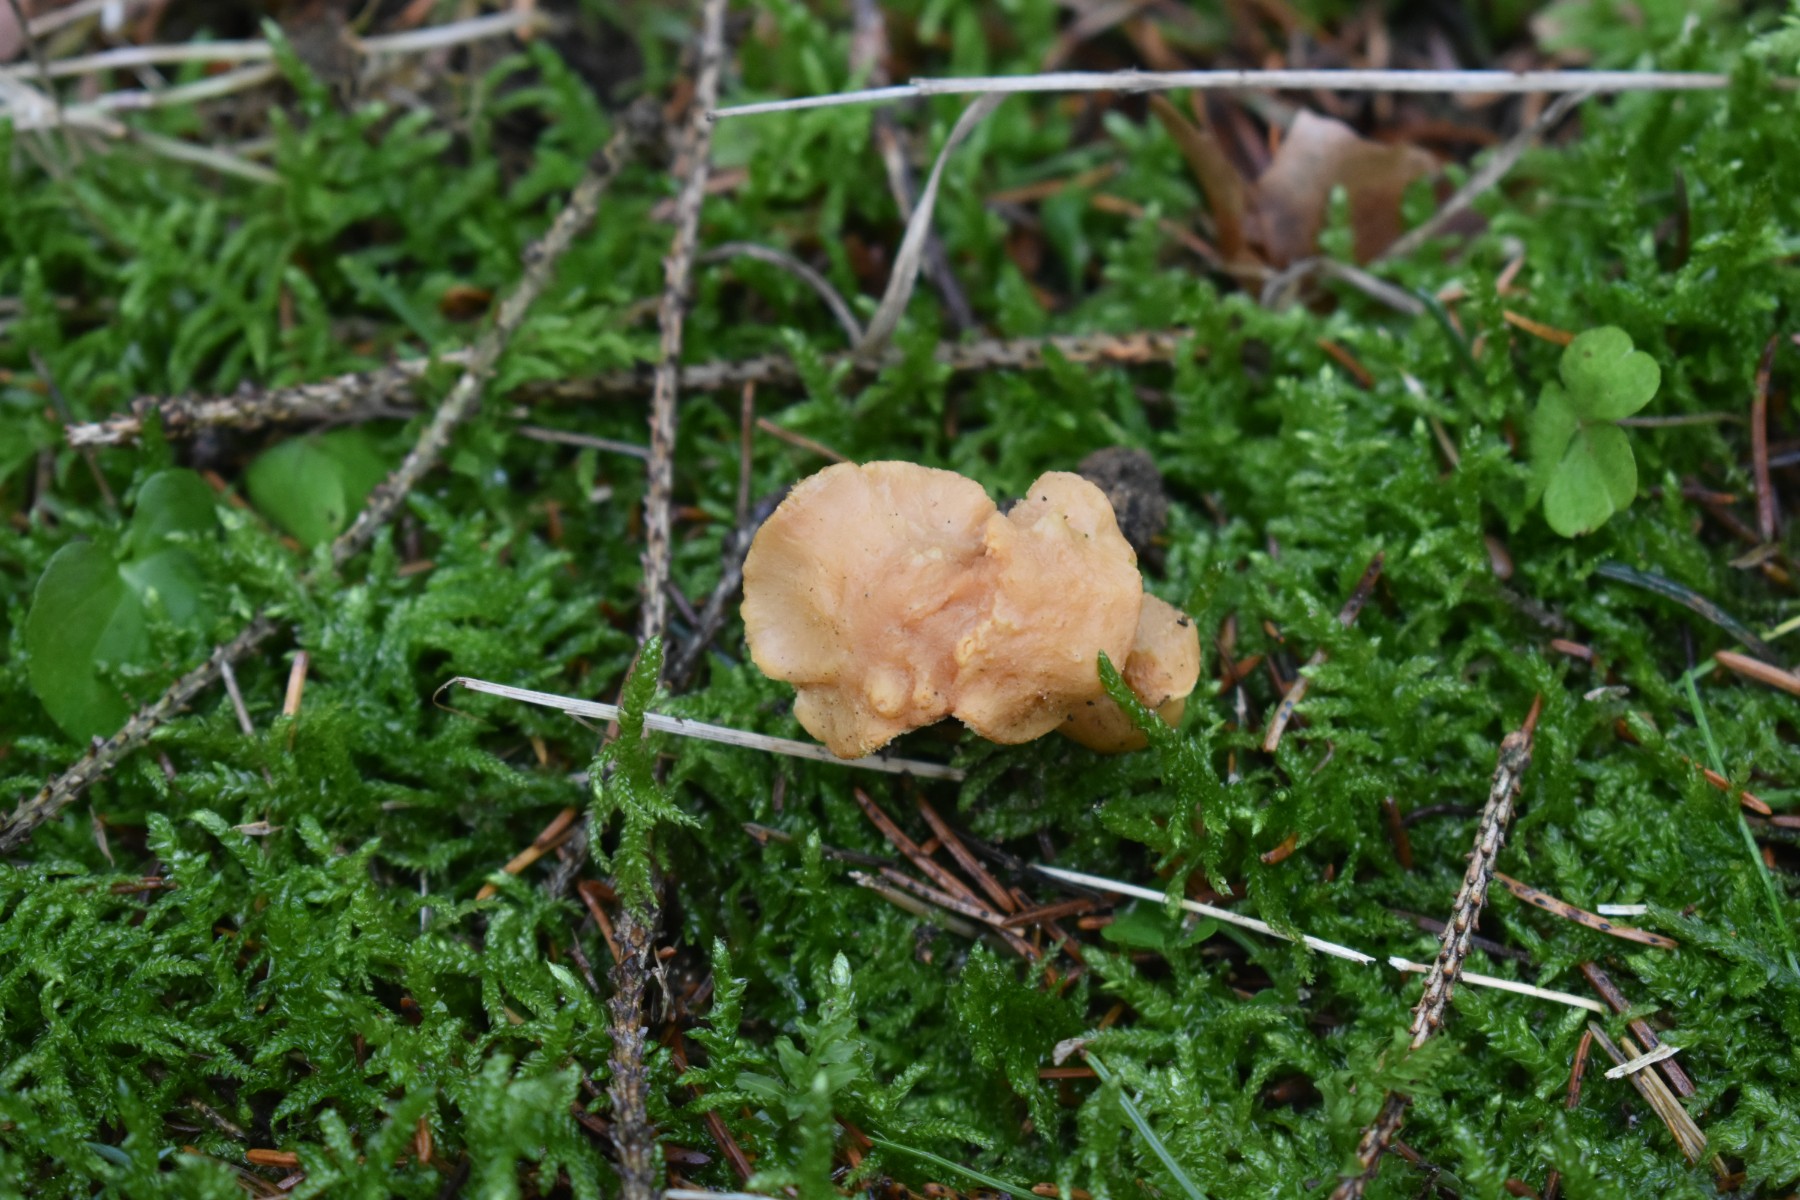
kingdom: Fungi
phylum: Basidiomycota
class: Agaricomycetes
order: Cantharellales
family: Hydnaceae
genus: Hydnum
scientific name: Hydnum
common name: pigsvamp
